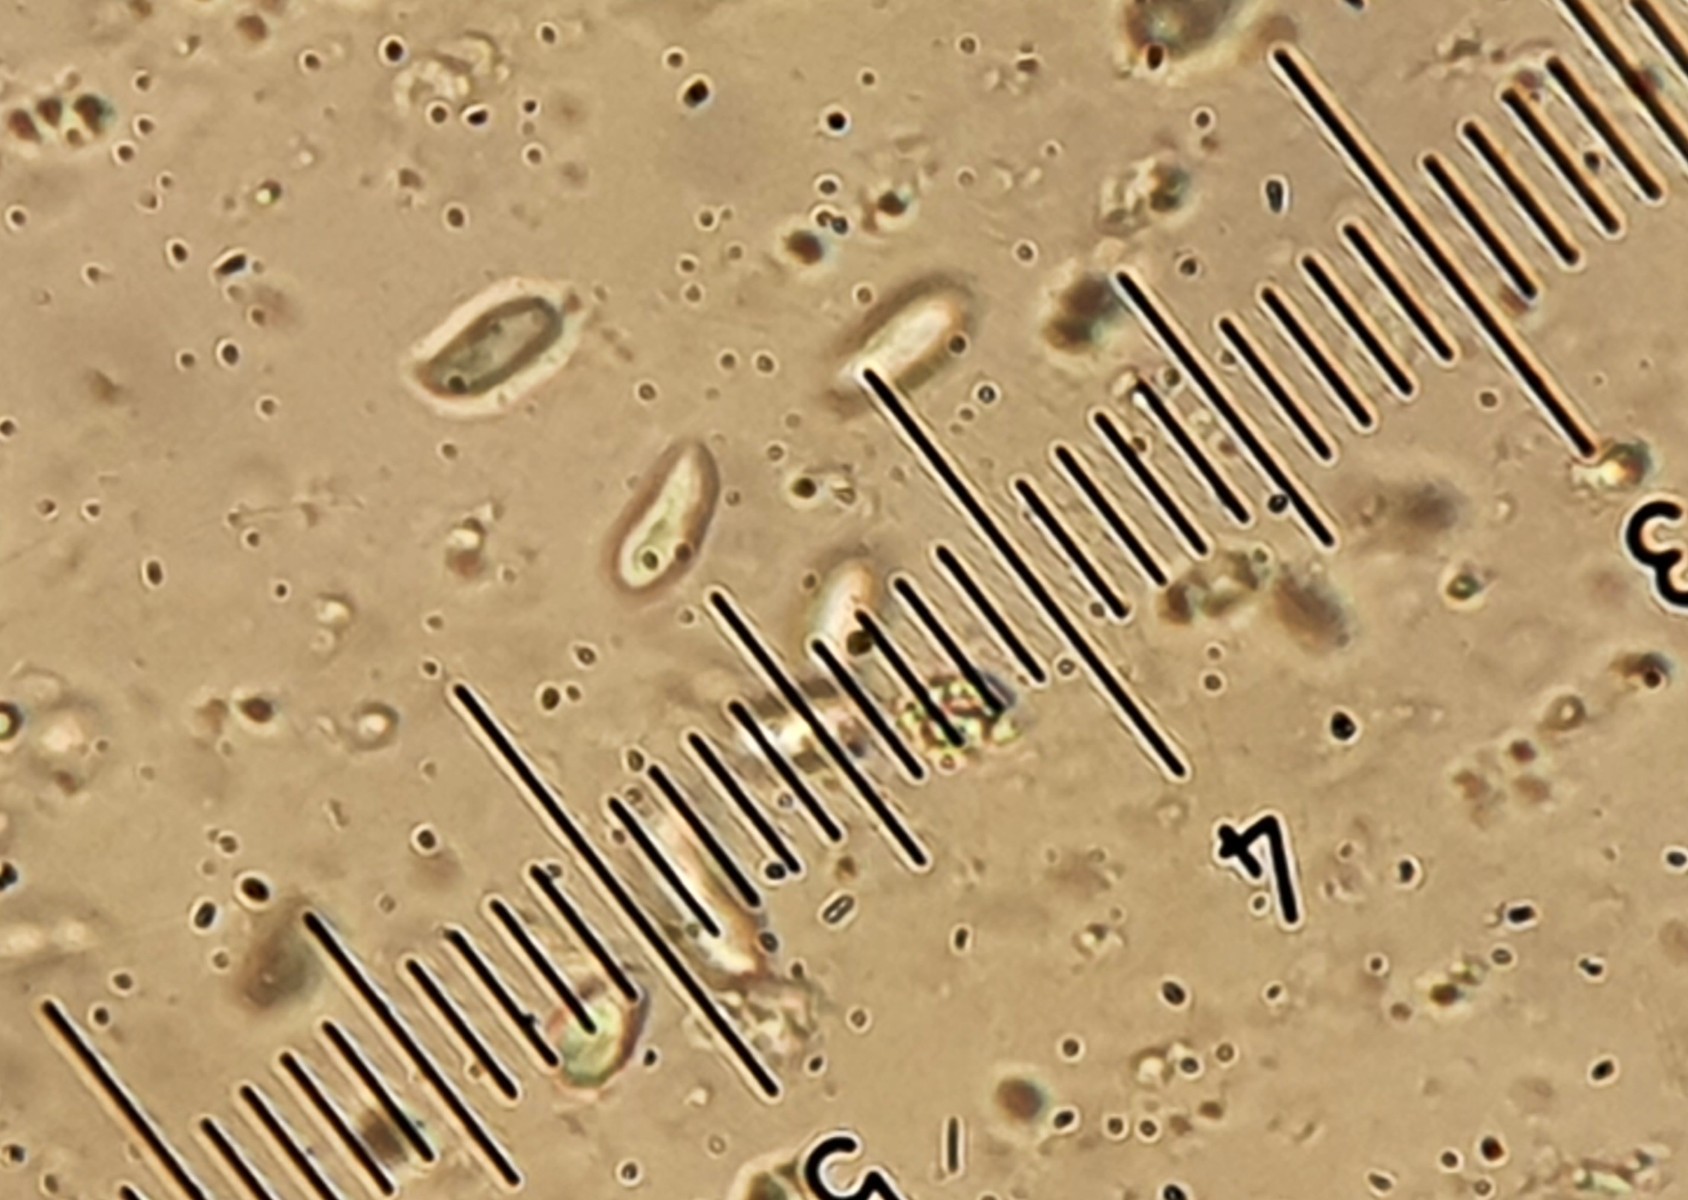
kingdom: Fungi
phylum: Basidiomycota
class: Agaricomycetes
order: Agaricales
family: Physalacriaceae
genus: Flammulina
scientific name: Flammulina elastica
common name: pile-fløjlsfod
